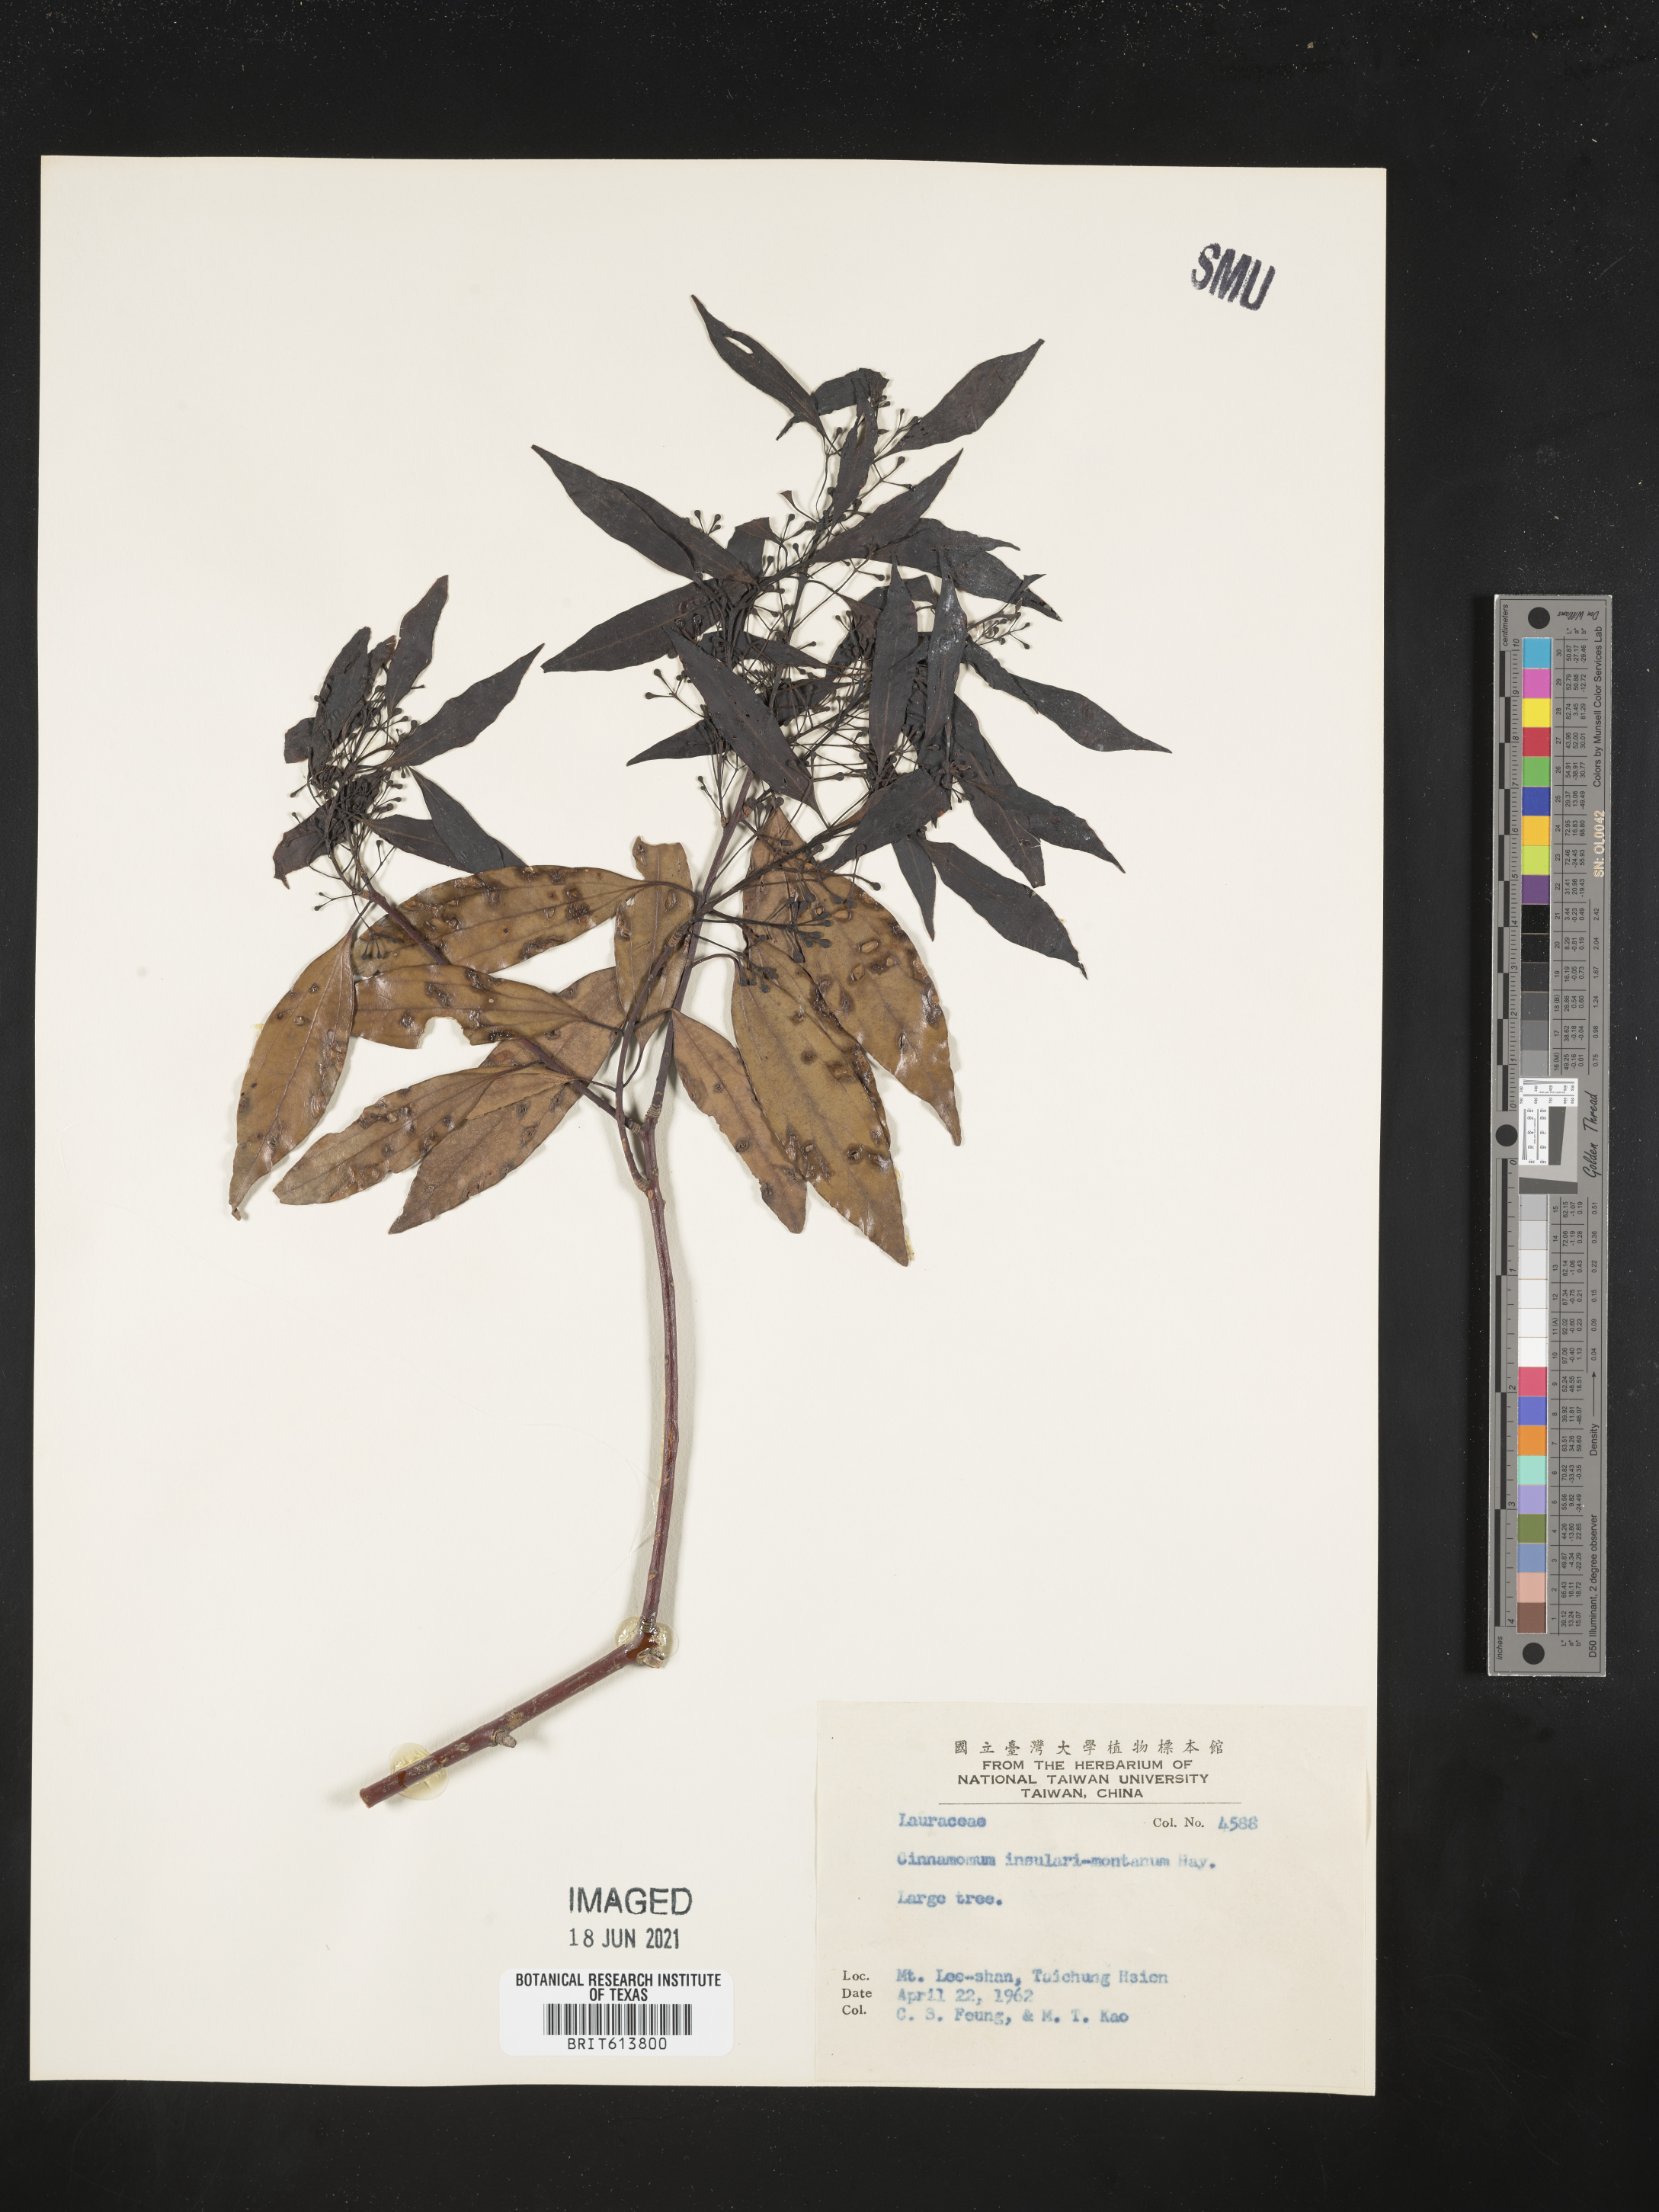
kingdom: Plantae
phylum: Tracheophyta
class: Magnoliopsida
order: Laurales
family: Lauraceae
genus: Cinnamomum
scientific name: Cinnamomum chekiangense
